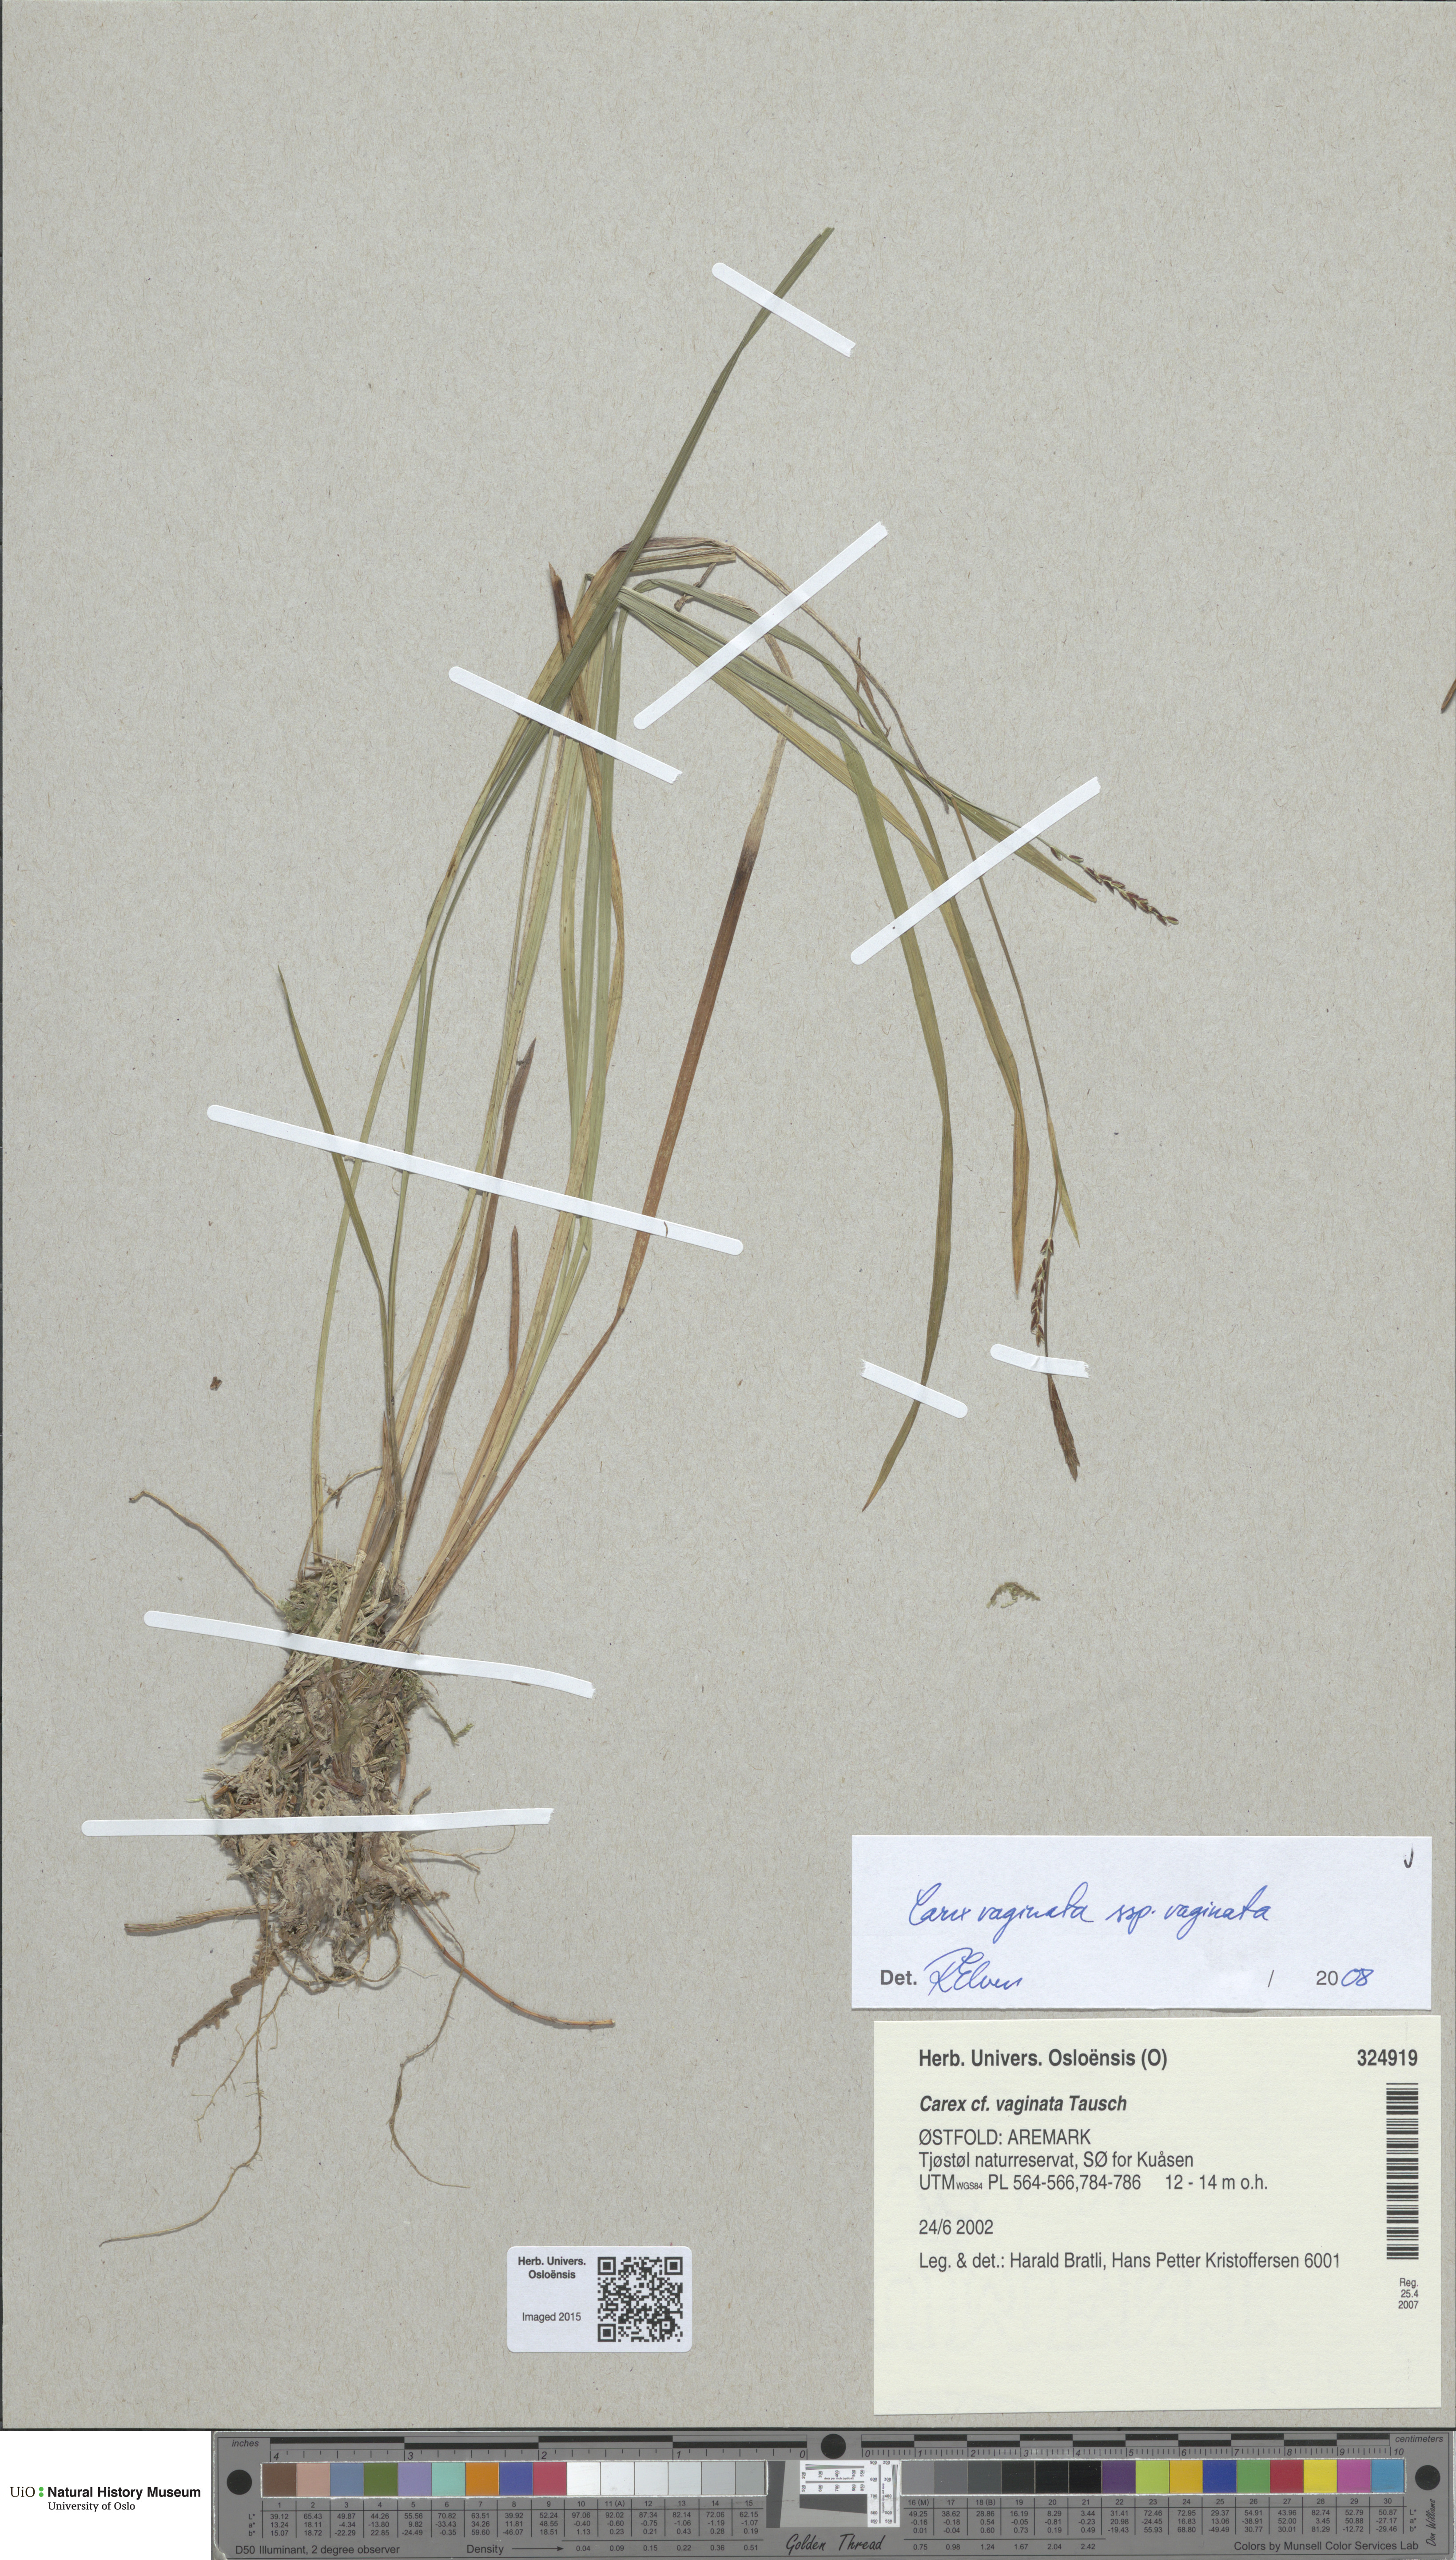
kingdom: Plantae
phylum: Tracheophyta
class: Liliopsida
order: Poales
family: Cyperaceae
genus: Carex
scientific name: Carex vaginata
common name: Sheathed sedge
